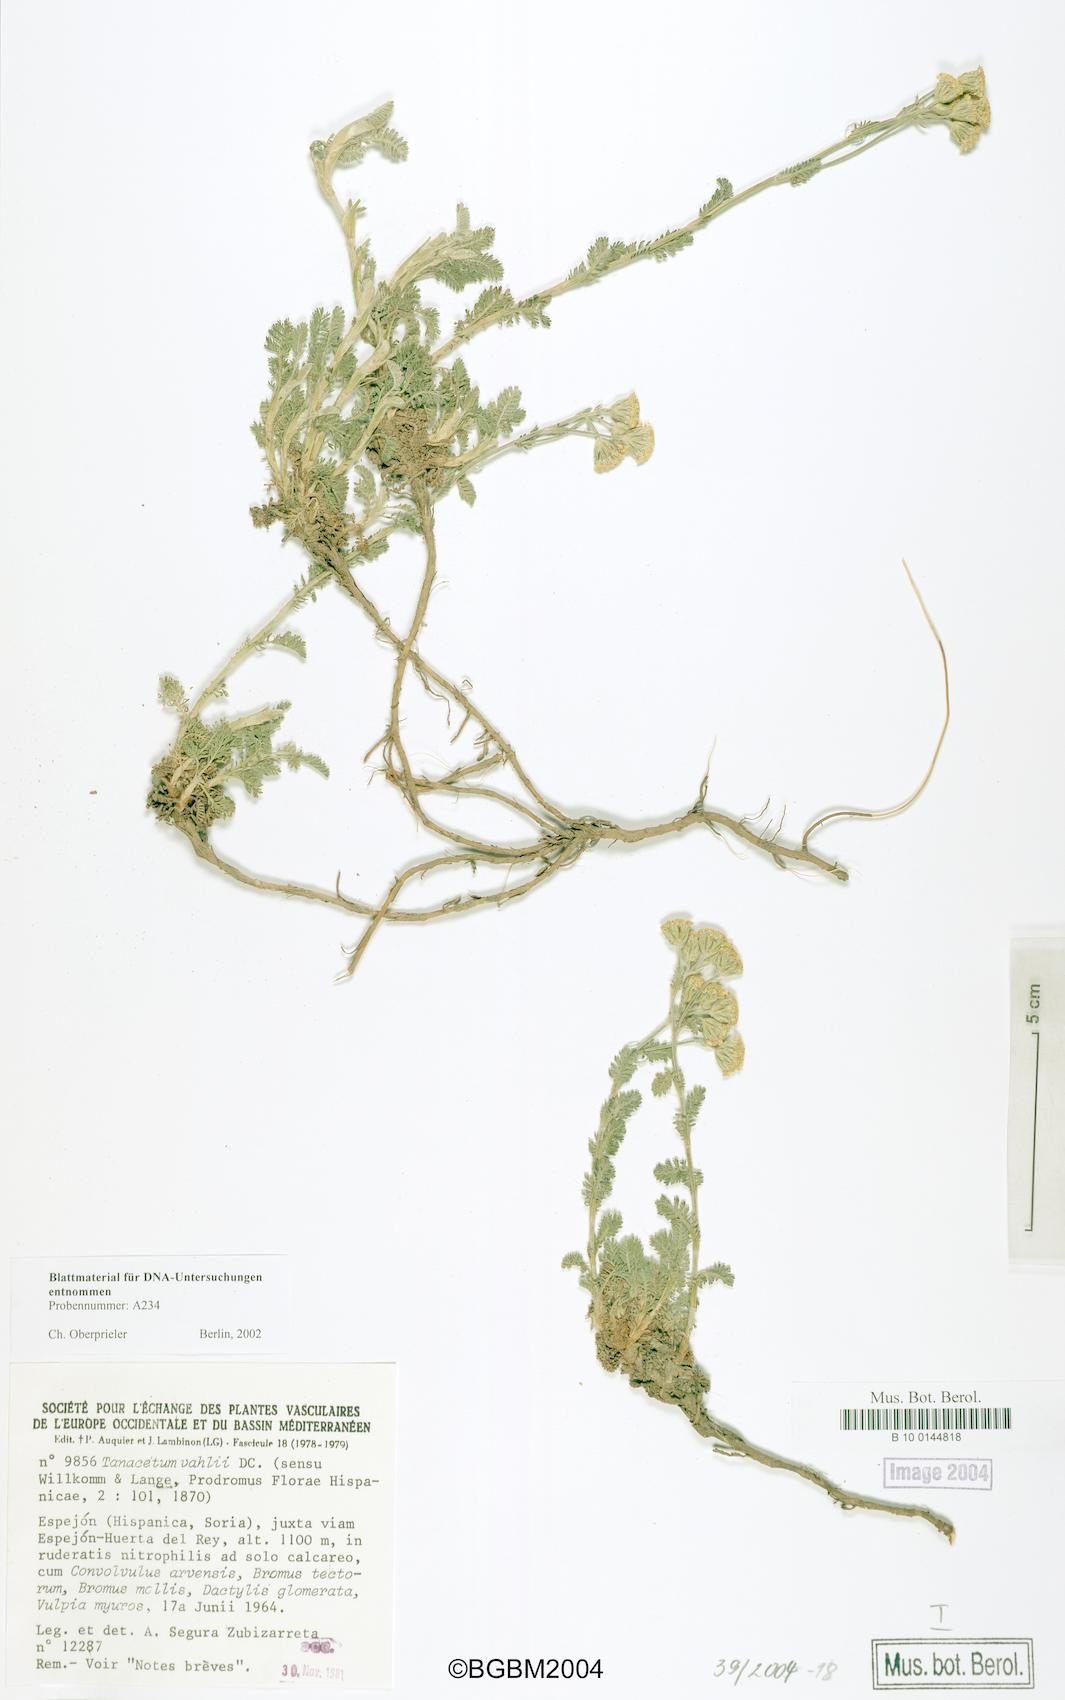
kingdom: Plantae
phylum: Tracheophyta
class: Magnoliopsida
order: Asterales
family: Asteraceae
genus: Tanacetum
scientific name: Tanacetum vahlii
